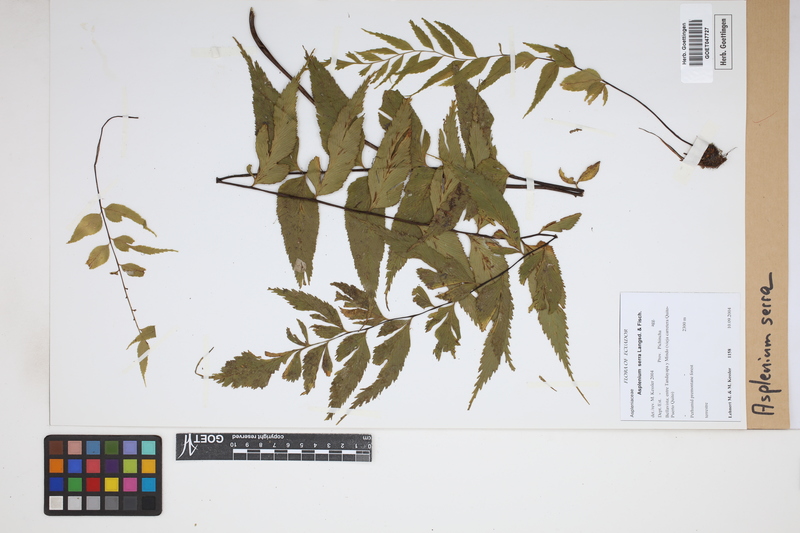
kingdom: Plantae
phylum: Tracheophyta
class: Polypodiopsida
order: Polypodiales
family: Aspleniaceae
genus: Asplenium
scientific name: Asplenium serra
